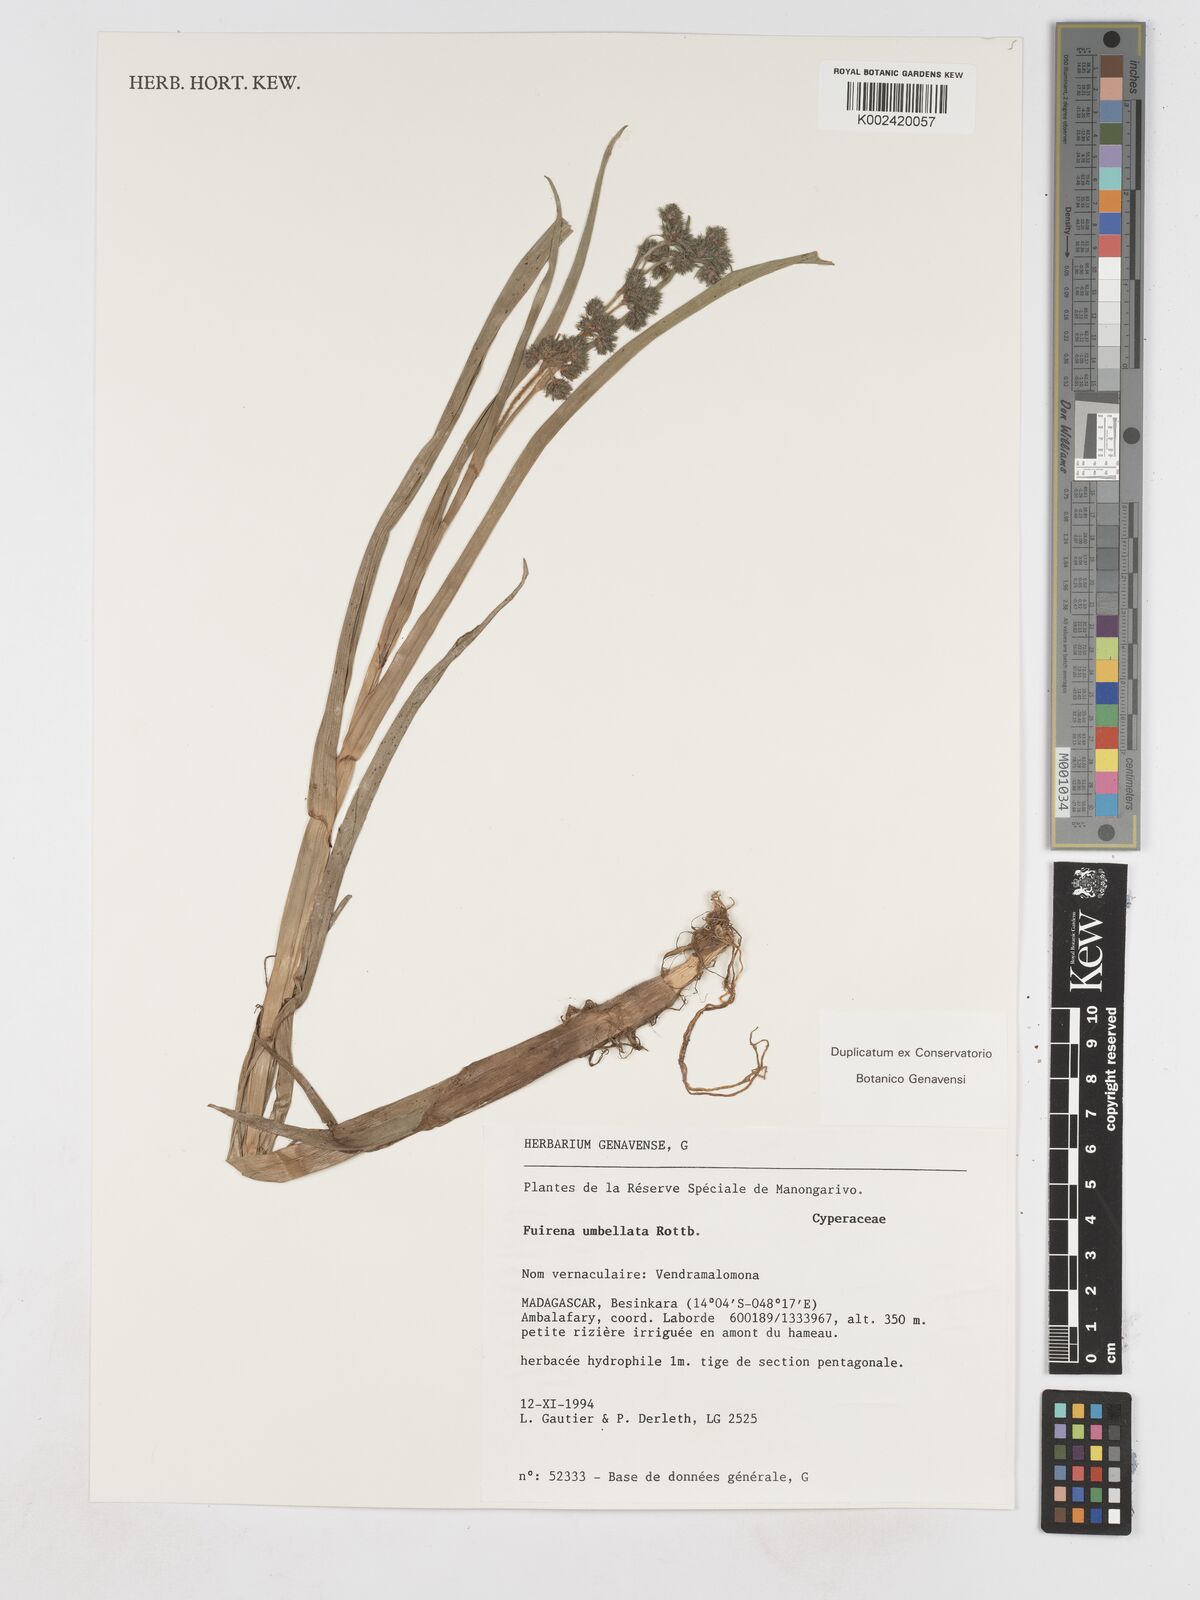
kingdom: Plantae
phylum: Tracheophyta
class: Liliopsida
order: Poales
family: Cyperaceae
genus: Fuirena
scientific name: Fuirena umbellata
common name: Yefen
